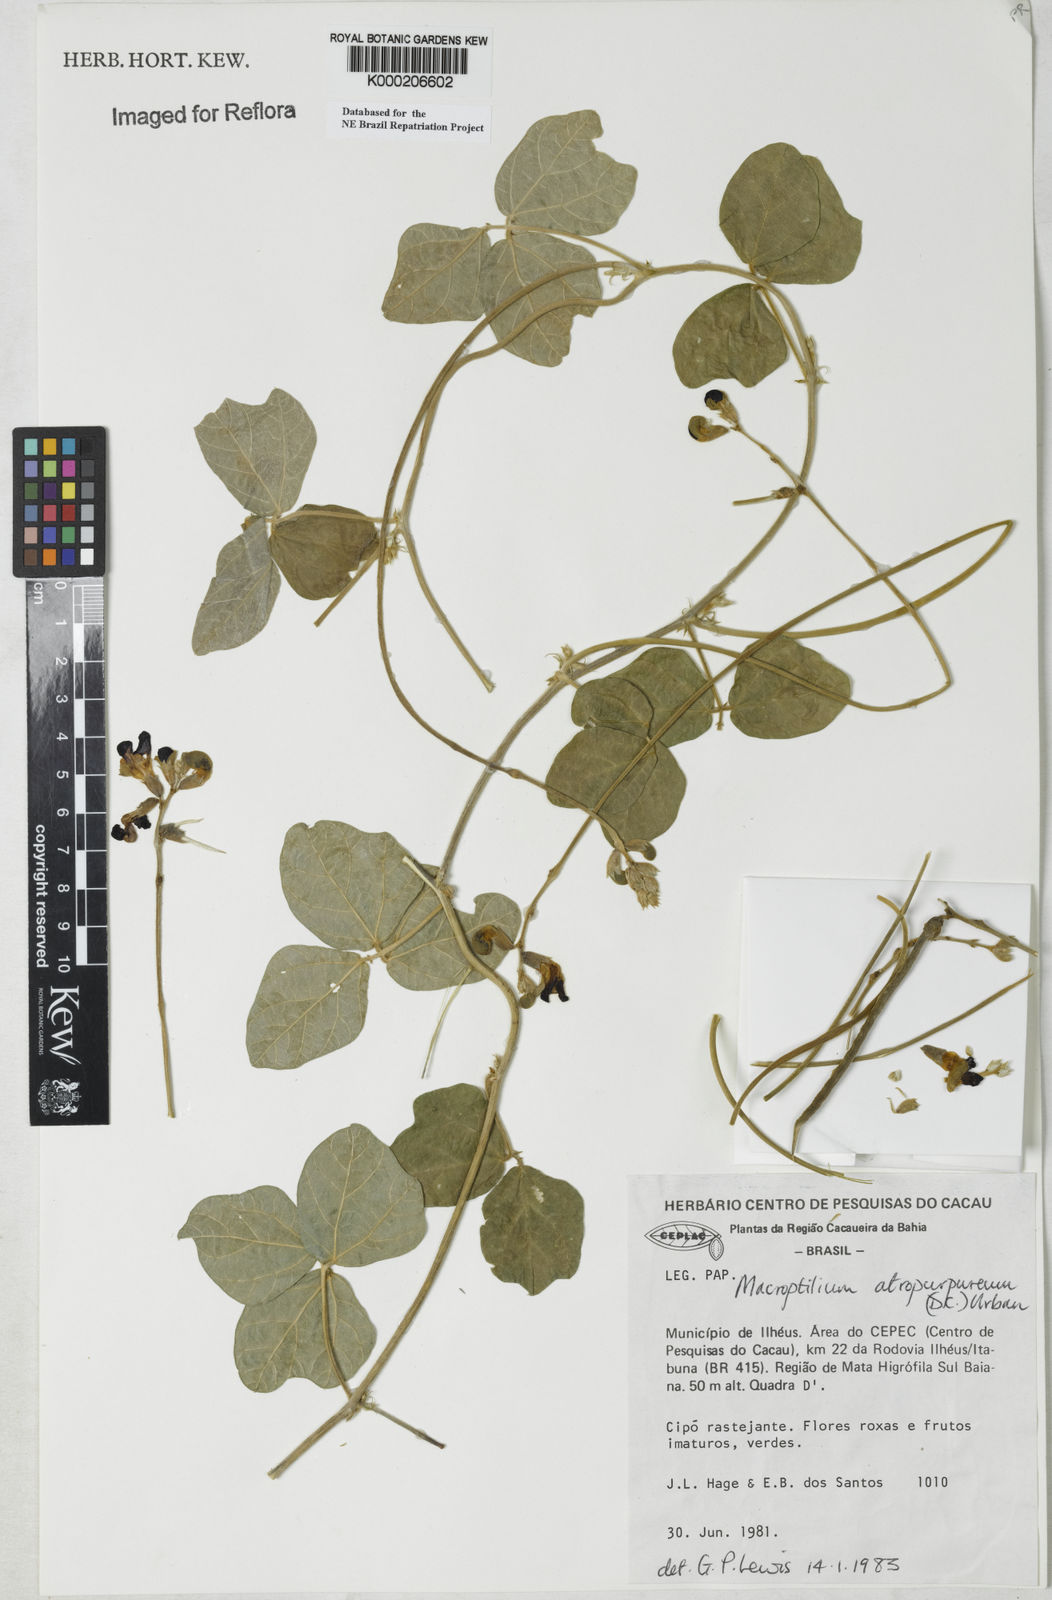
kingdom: Plantae
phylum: Tracheophyta
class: Magnoliopsida
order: Fabales
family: Fabaceae
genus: Macroptilium
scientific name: Macroptilium atropurpureum
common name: Purple bushbean
